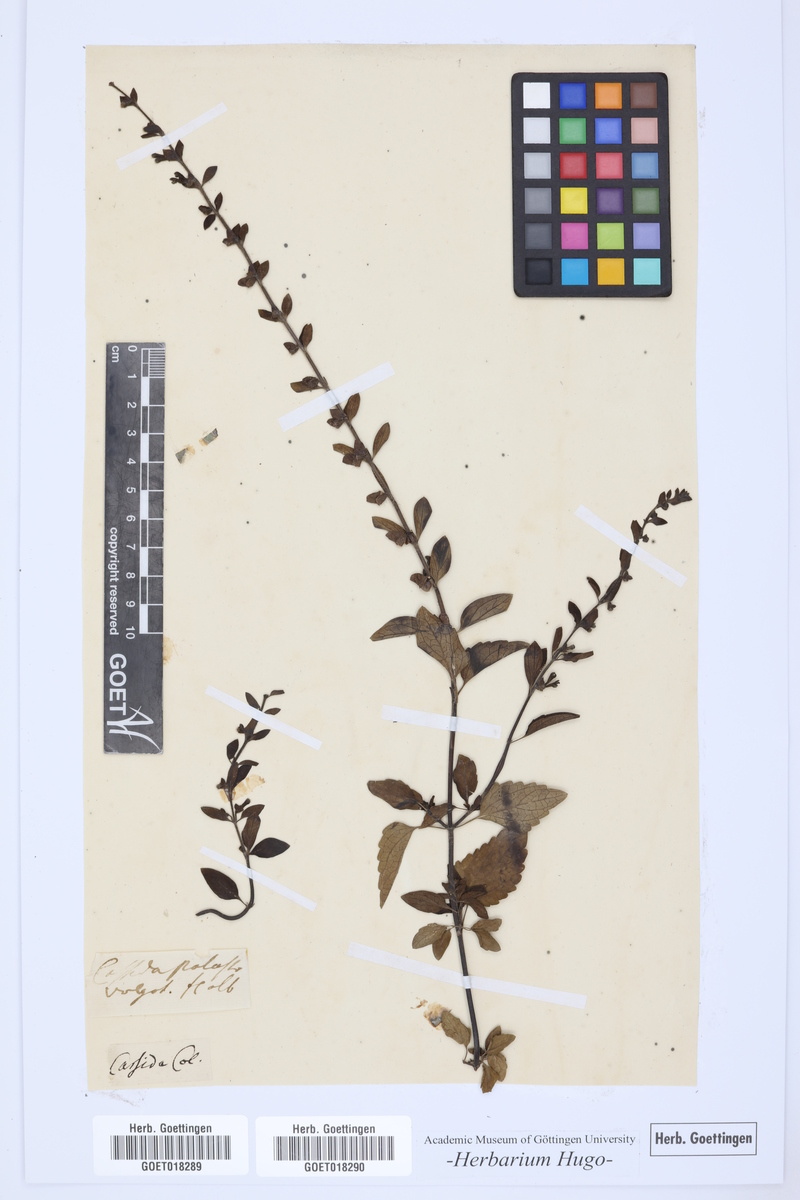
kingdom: Plantae
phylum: Tracheophyta
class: Magnoliopsida
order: Lamiales
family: Lamiaceae
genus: Cassida
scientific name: Cassida
